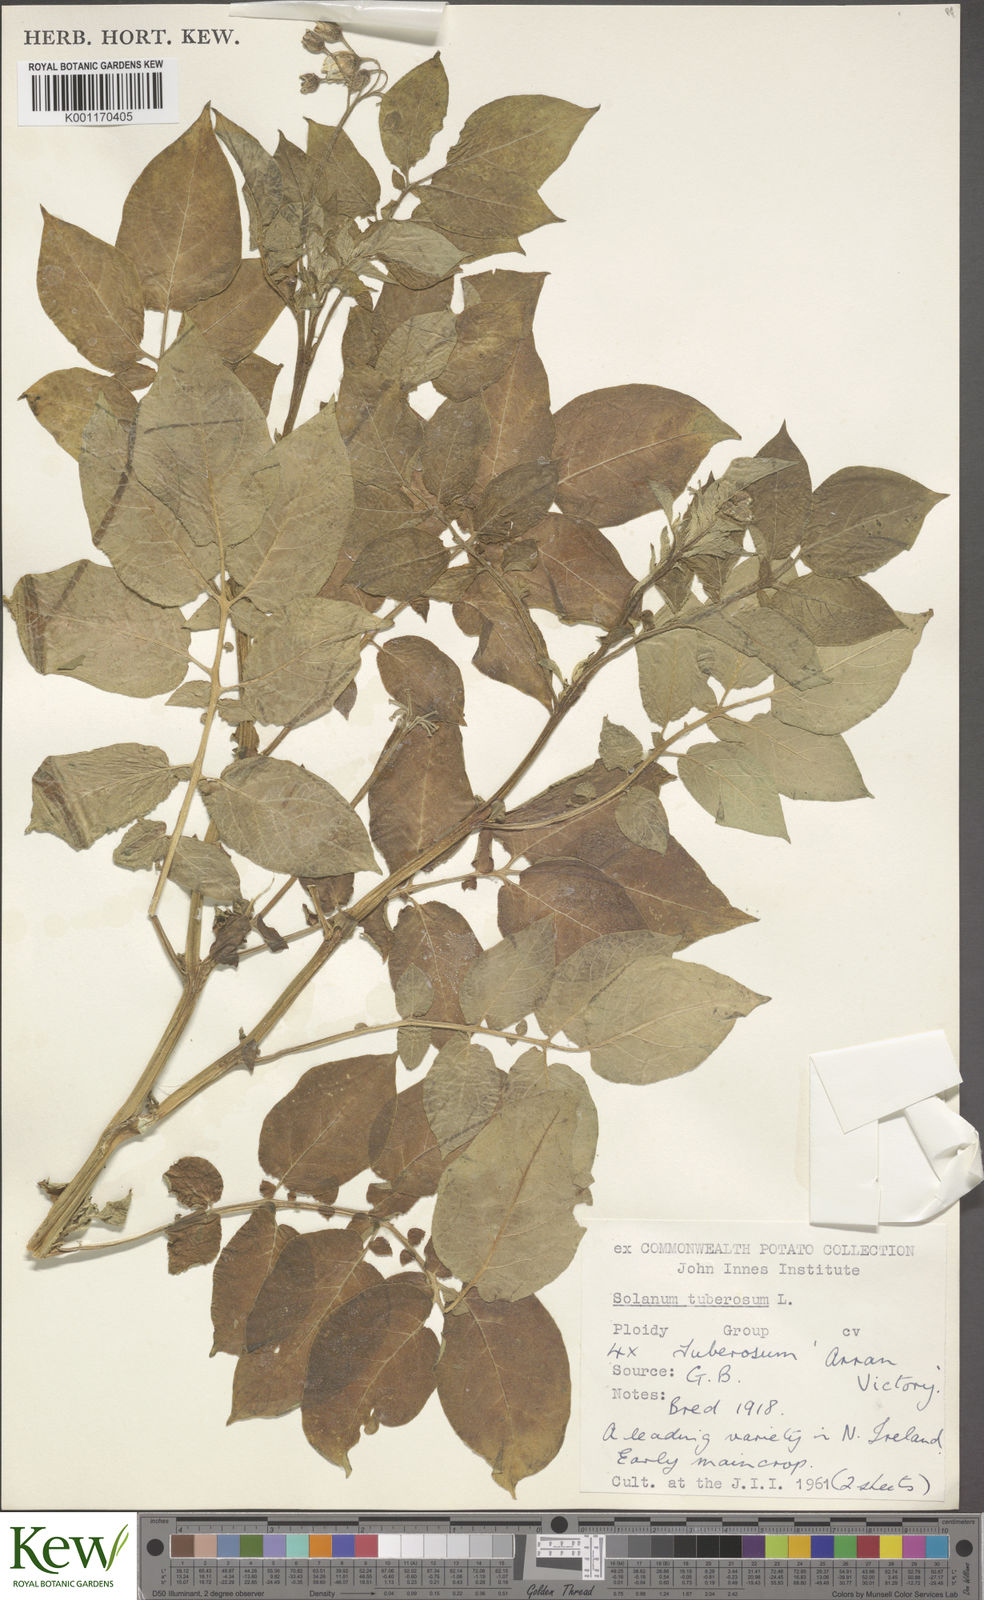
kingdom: Plantae
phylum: Tracheophyta
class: Magnoliopsida
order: Solanales
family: Solanaceae
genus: Solanum
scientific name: Solanum tuberosum
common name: Potato
